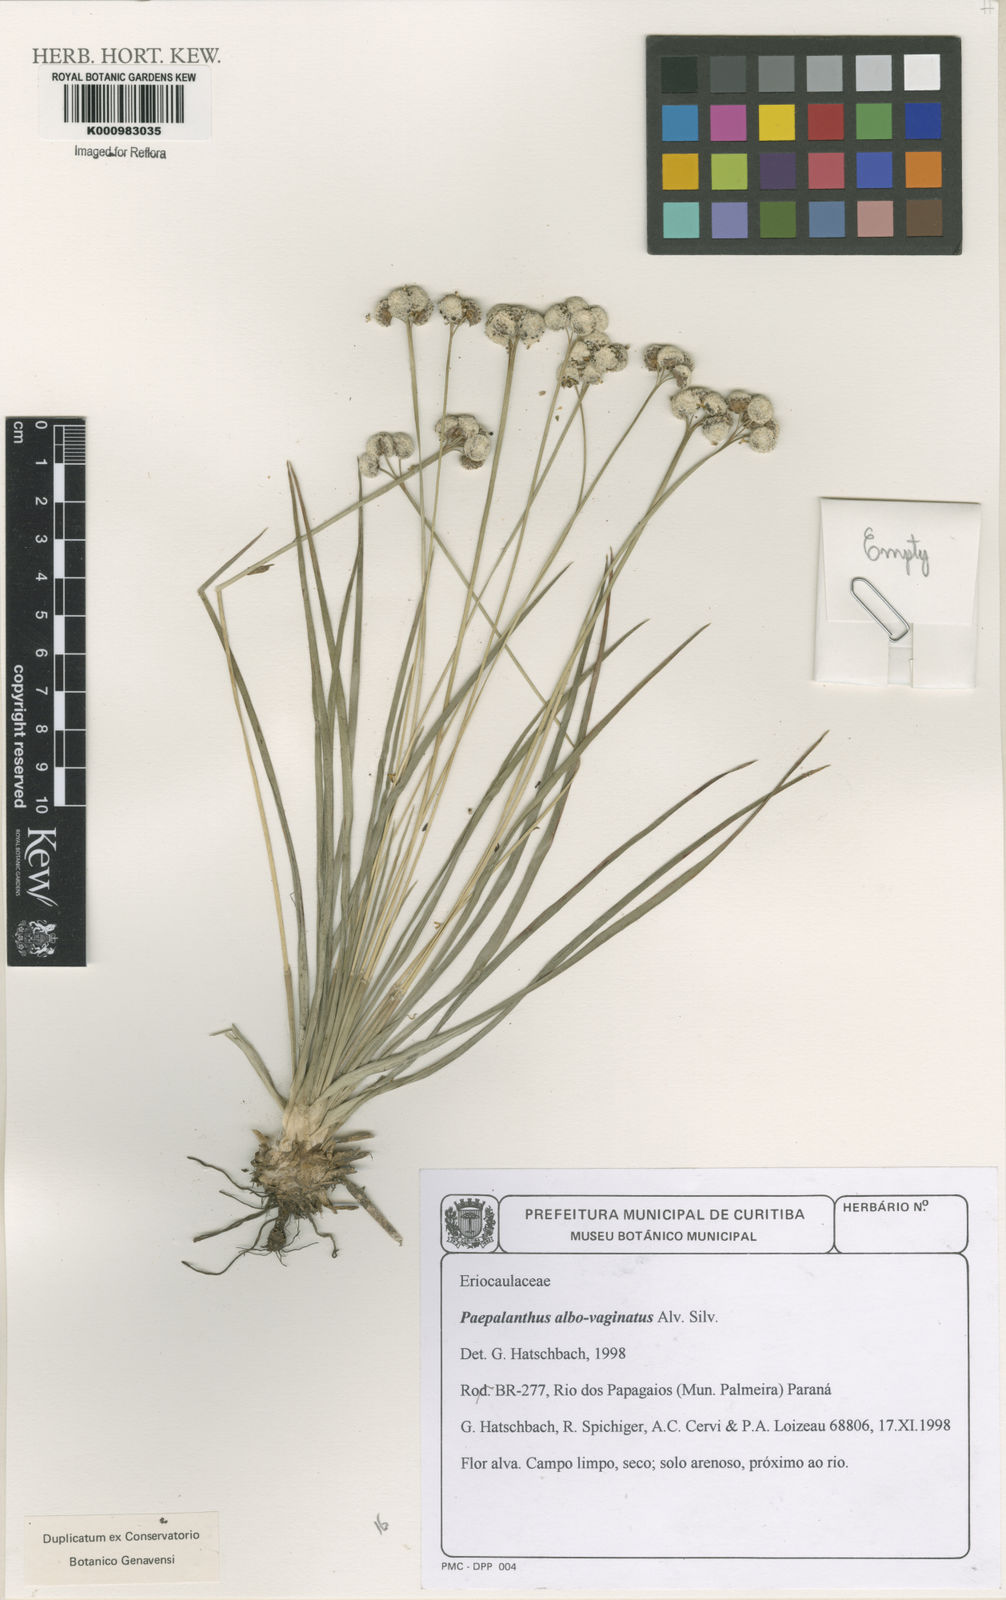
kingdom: Plantae
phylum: Tracheophyta
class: Liliopsida
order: Poales
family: Eriocaulaceae
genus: Paepalanthus
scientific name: Paepalanthus albovaginatus
